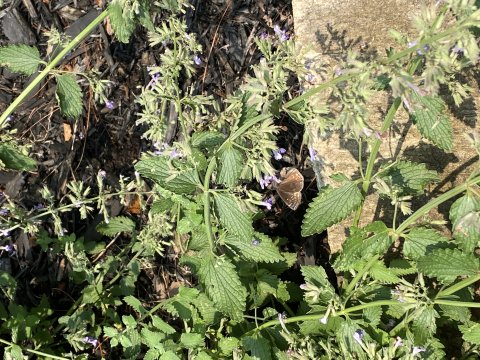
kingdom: Animalia
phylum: Arthropoda
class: Insecta
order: Lepidoptera
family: Hesperiidae
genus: Gesta
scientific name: Gesta
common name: Wild Indigo Duskywing
